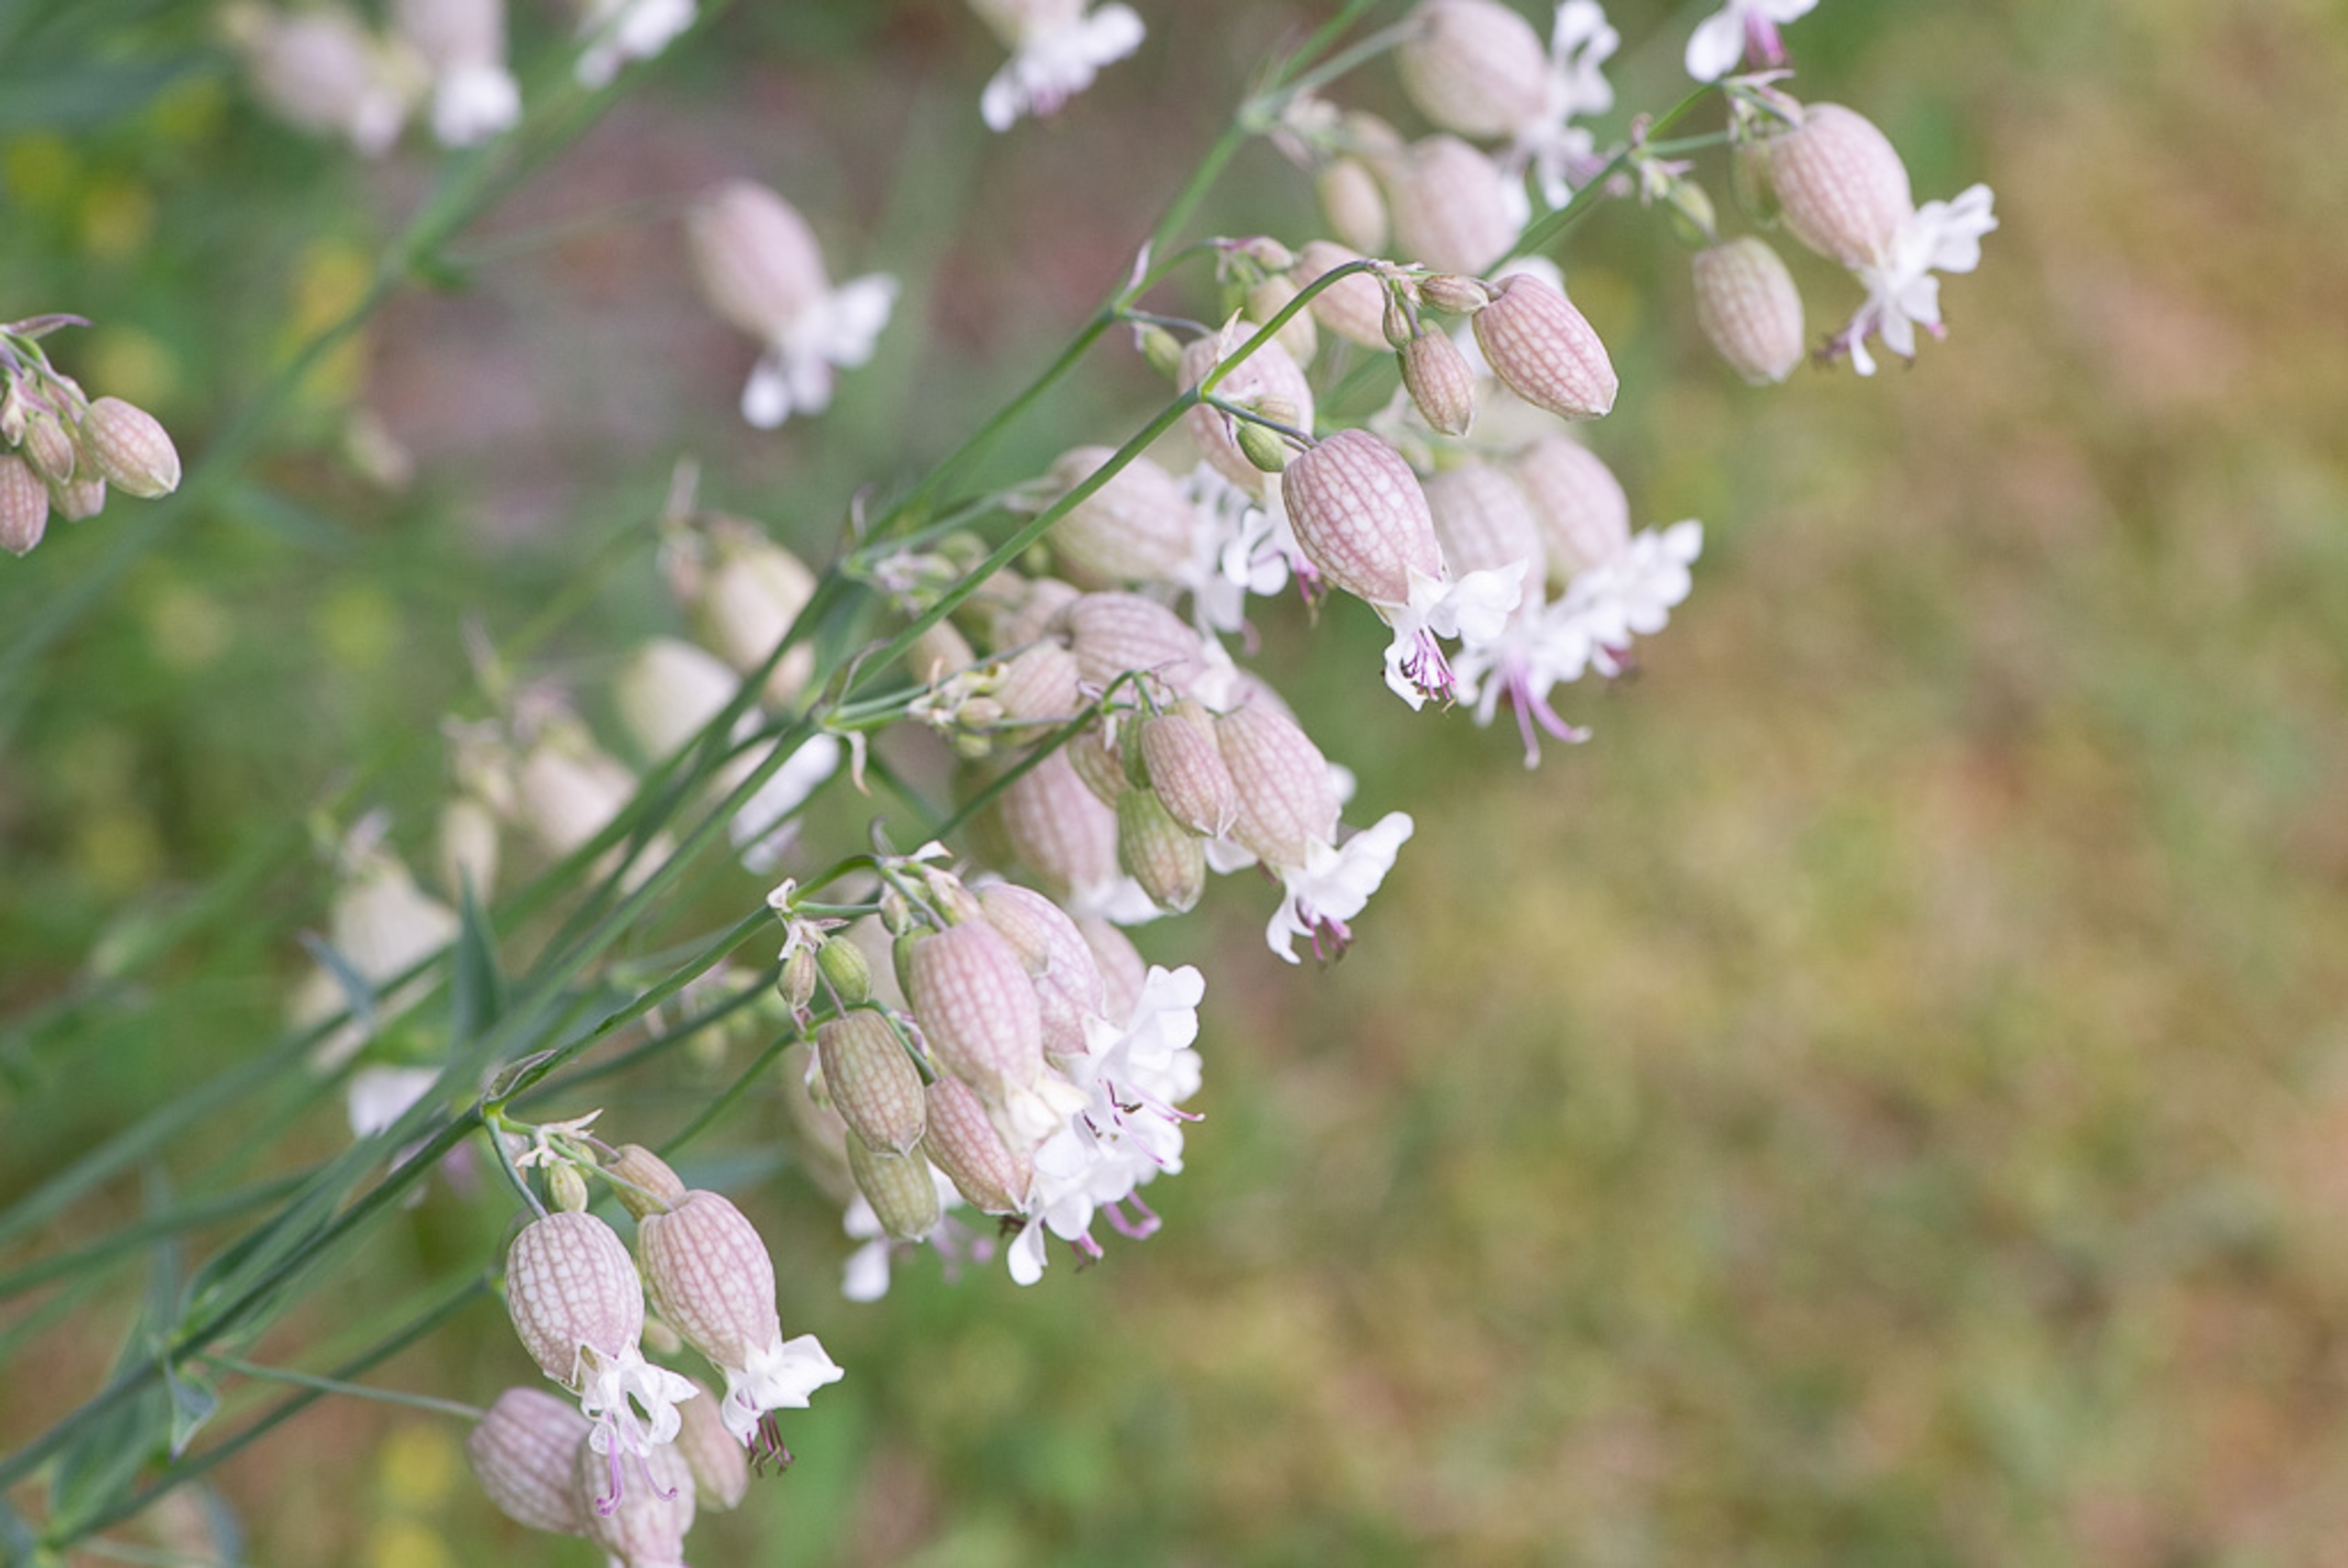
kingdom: Plantae
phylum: Tracheophyta
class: Magnoliopsida
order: Caryophyllales
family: Caryophyllaceae
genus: Silene
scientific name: Silene vulgaris
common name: Blæresmælde
